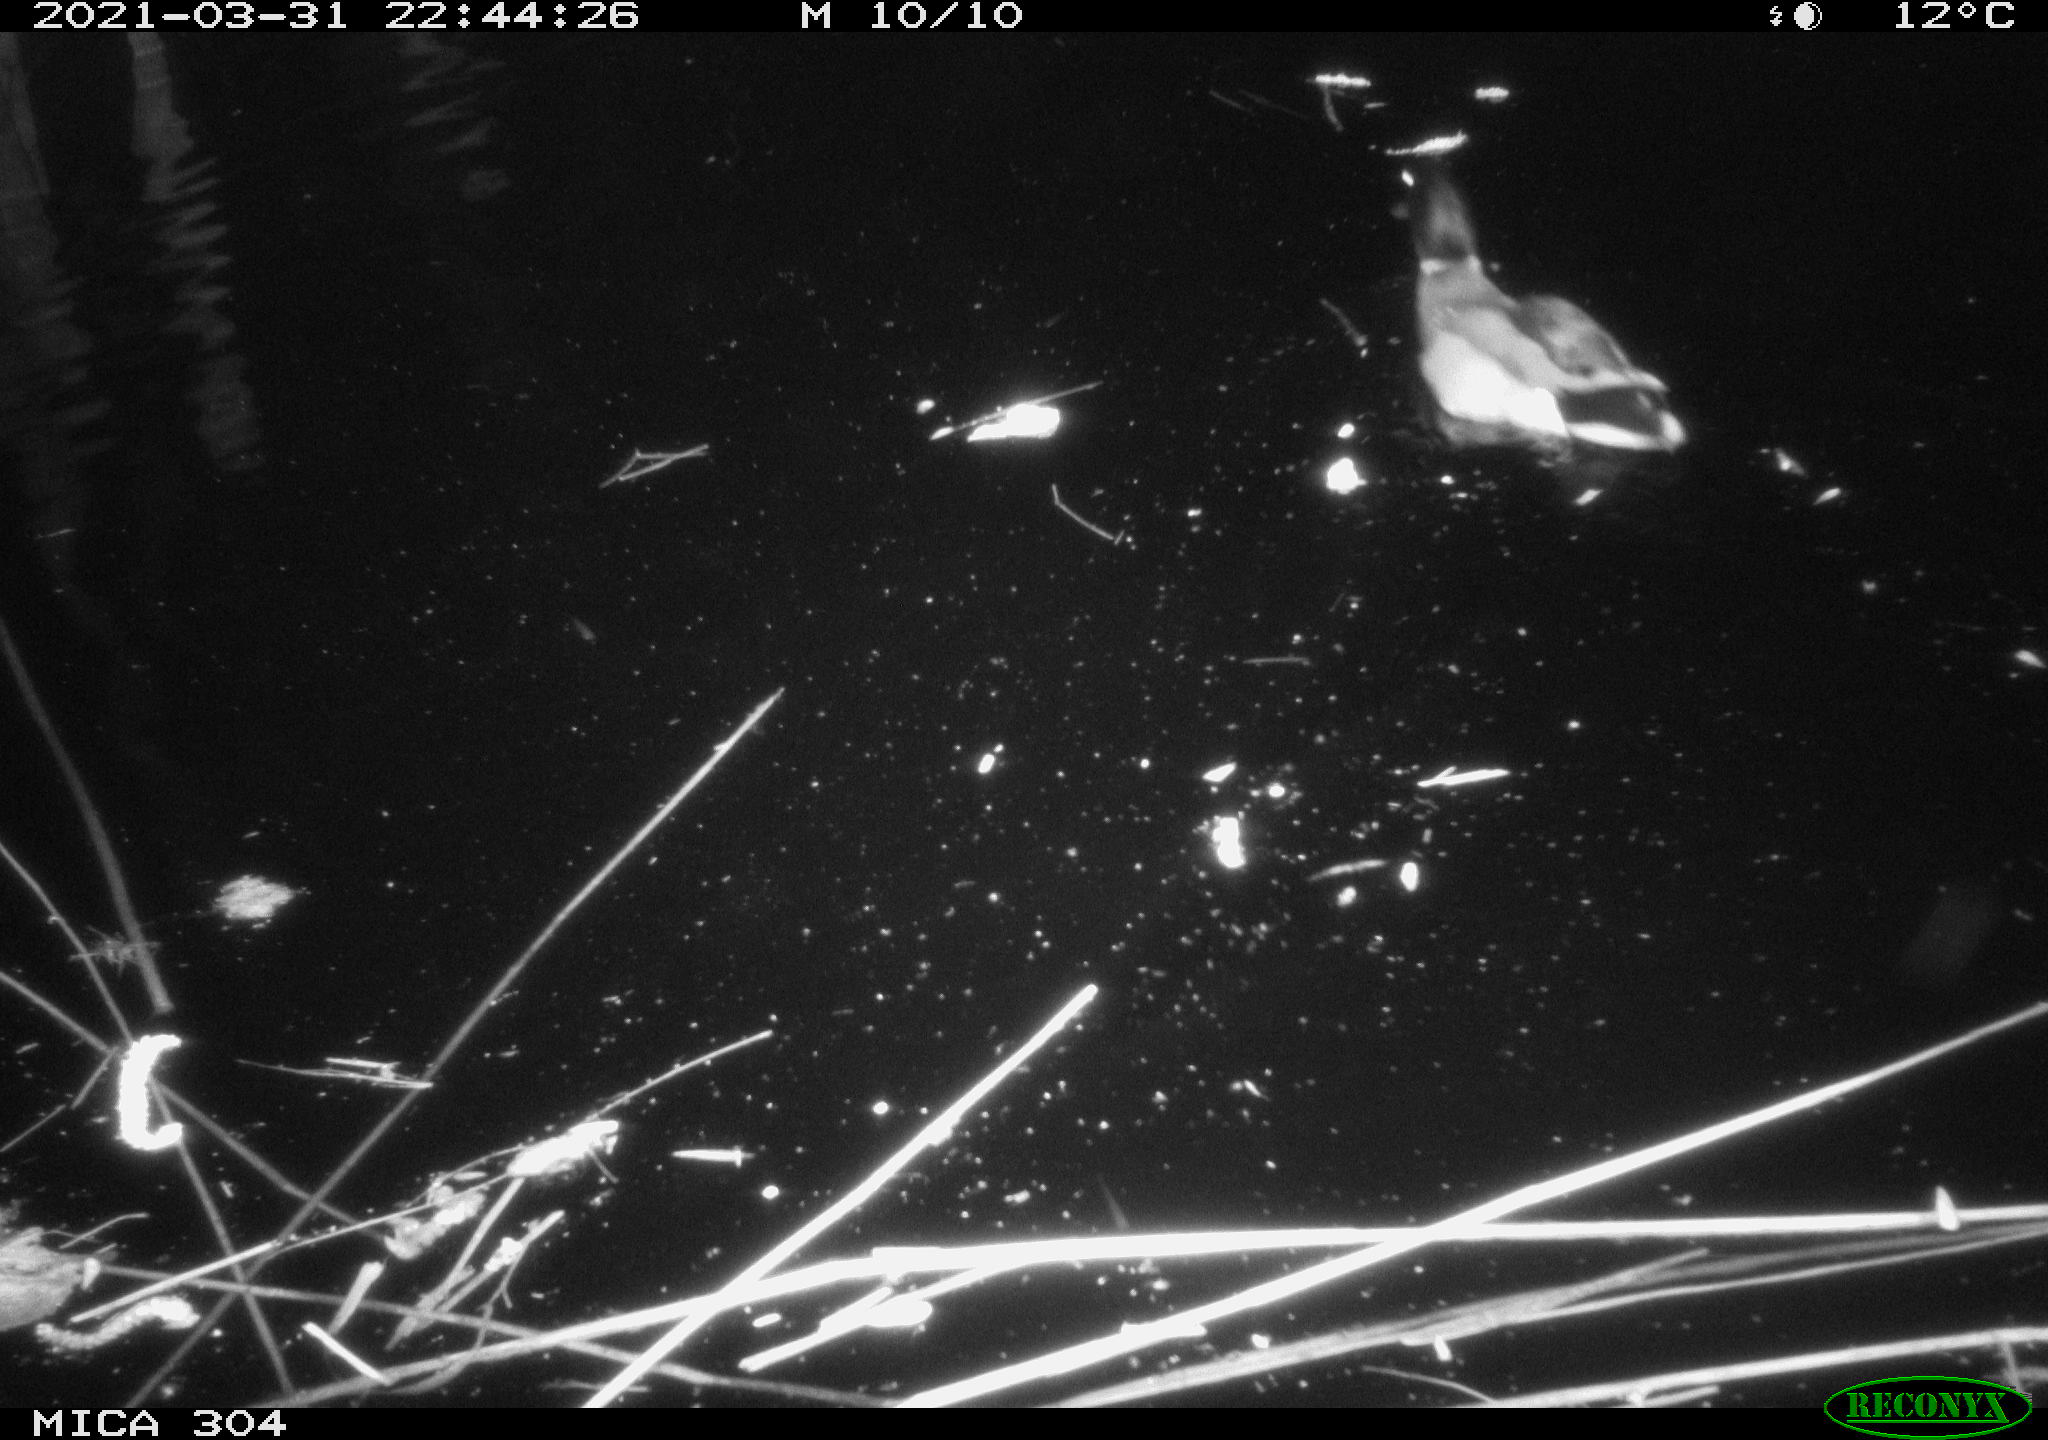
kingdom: Animalia
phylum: Chordata
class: Aves
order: Gruiformes
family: Rallidae
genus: Gallinula
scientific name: Gallinula chloropus
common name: Common moorhen
